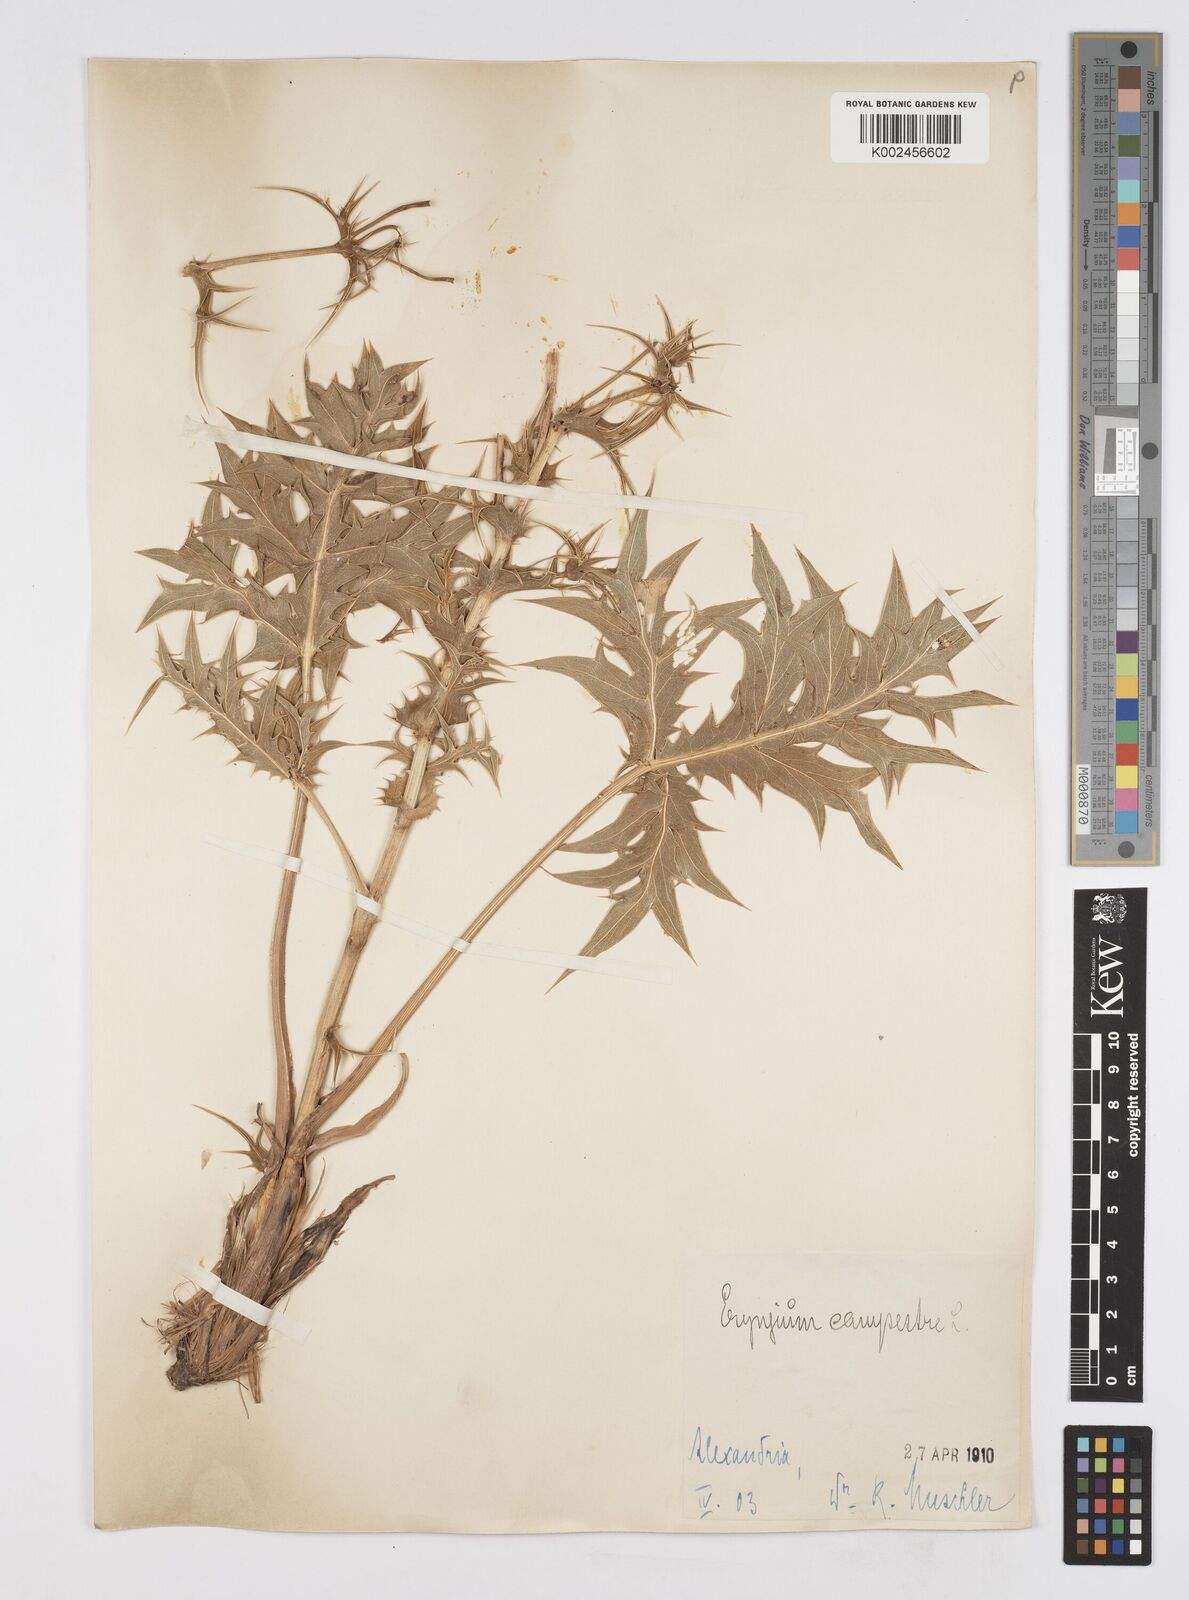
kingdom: Plantae
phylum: Tracheophyta
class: Magnoliopsida
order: Apiales
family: Apiaceae
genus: Eryngium
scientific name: Eryngium campestre
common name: Field eryngo
